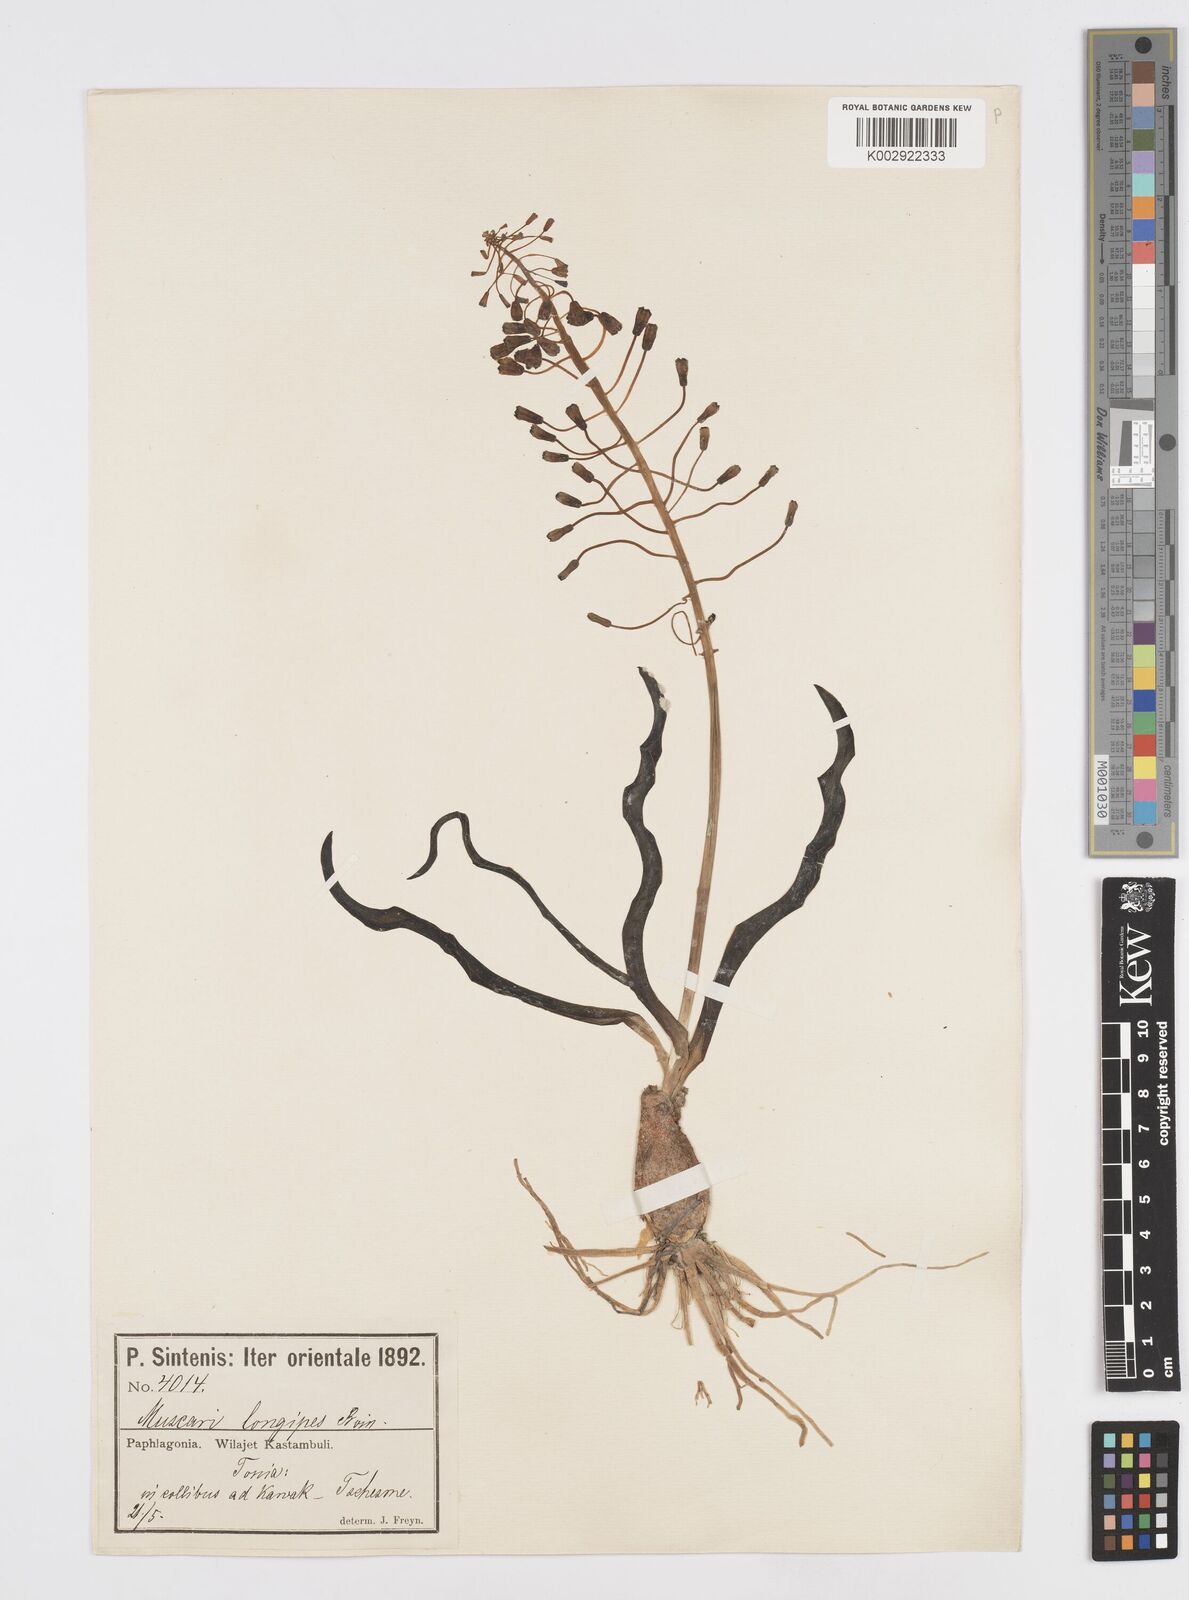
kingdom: Plantae
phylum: Tracheophyta
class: Liliopsida
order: Asparagales
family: Asparagaceae
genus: Muscari
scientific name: Muscari longipes
